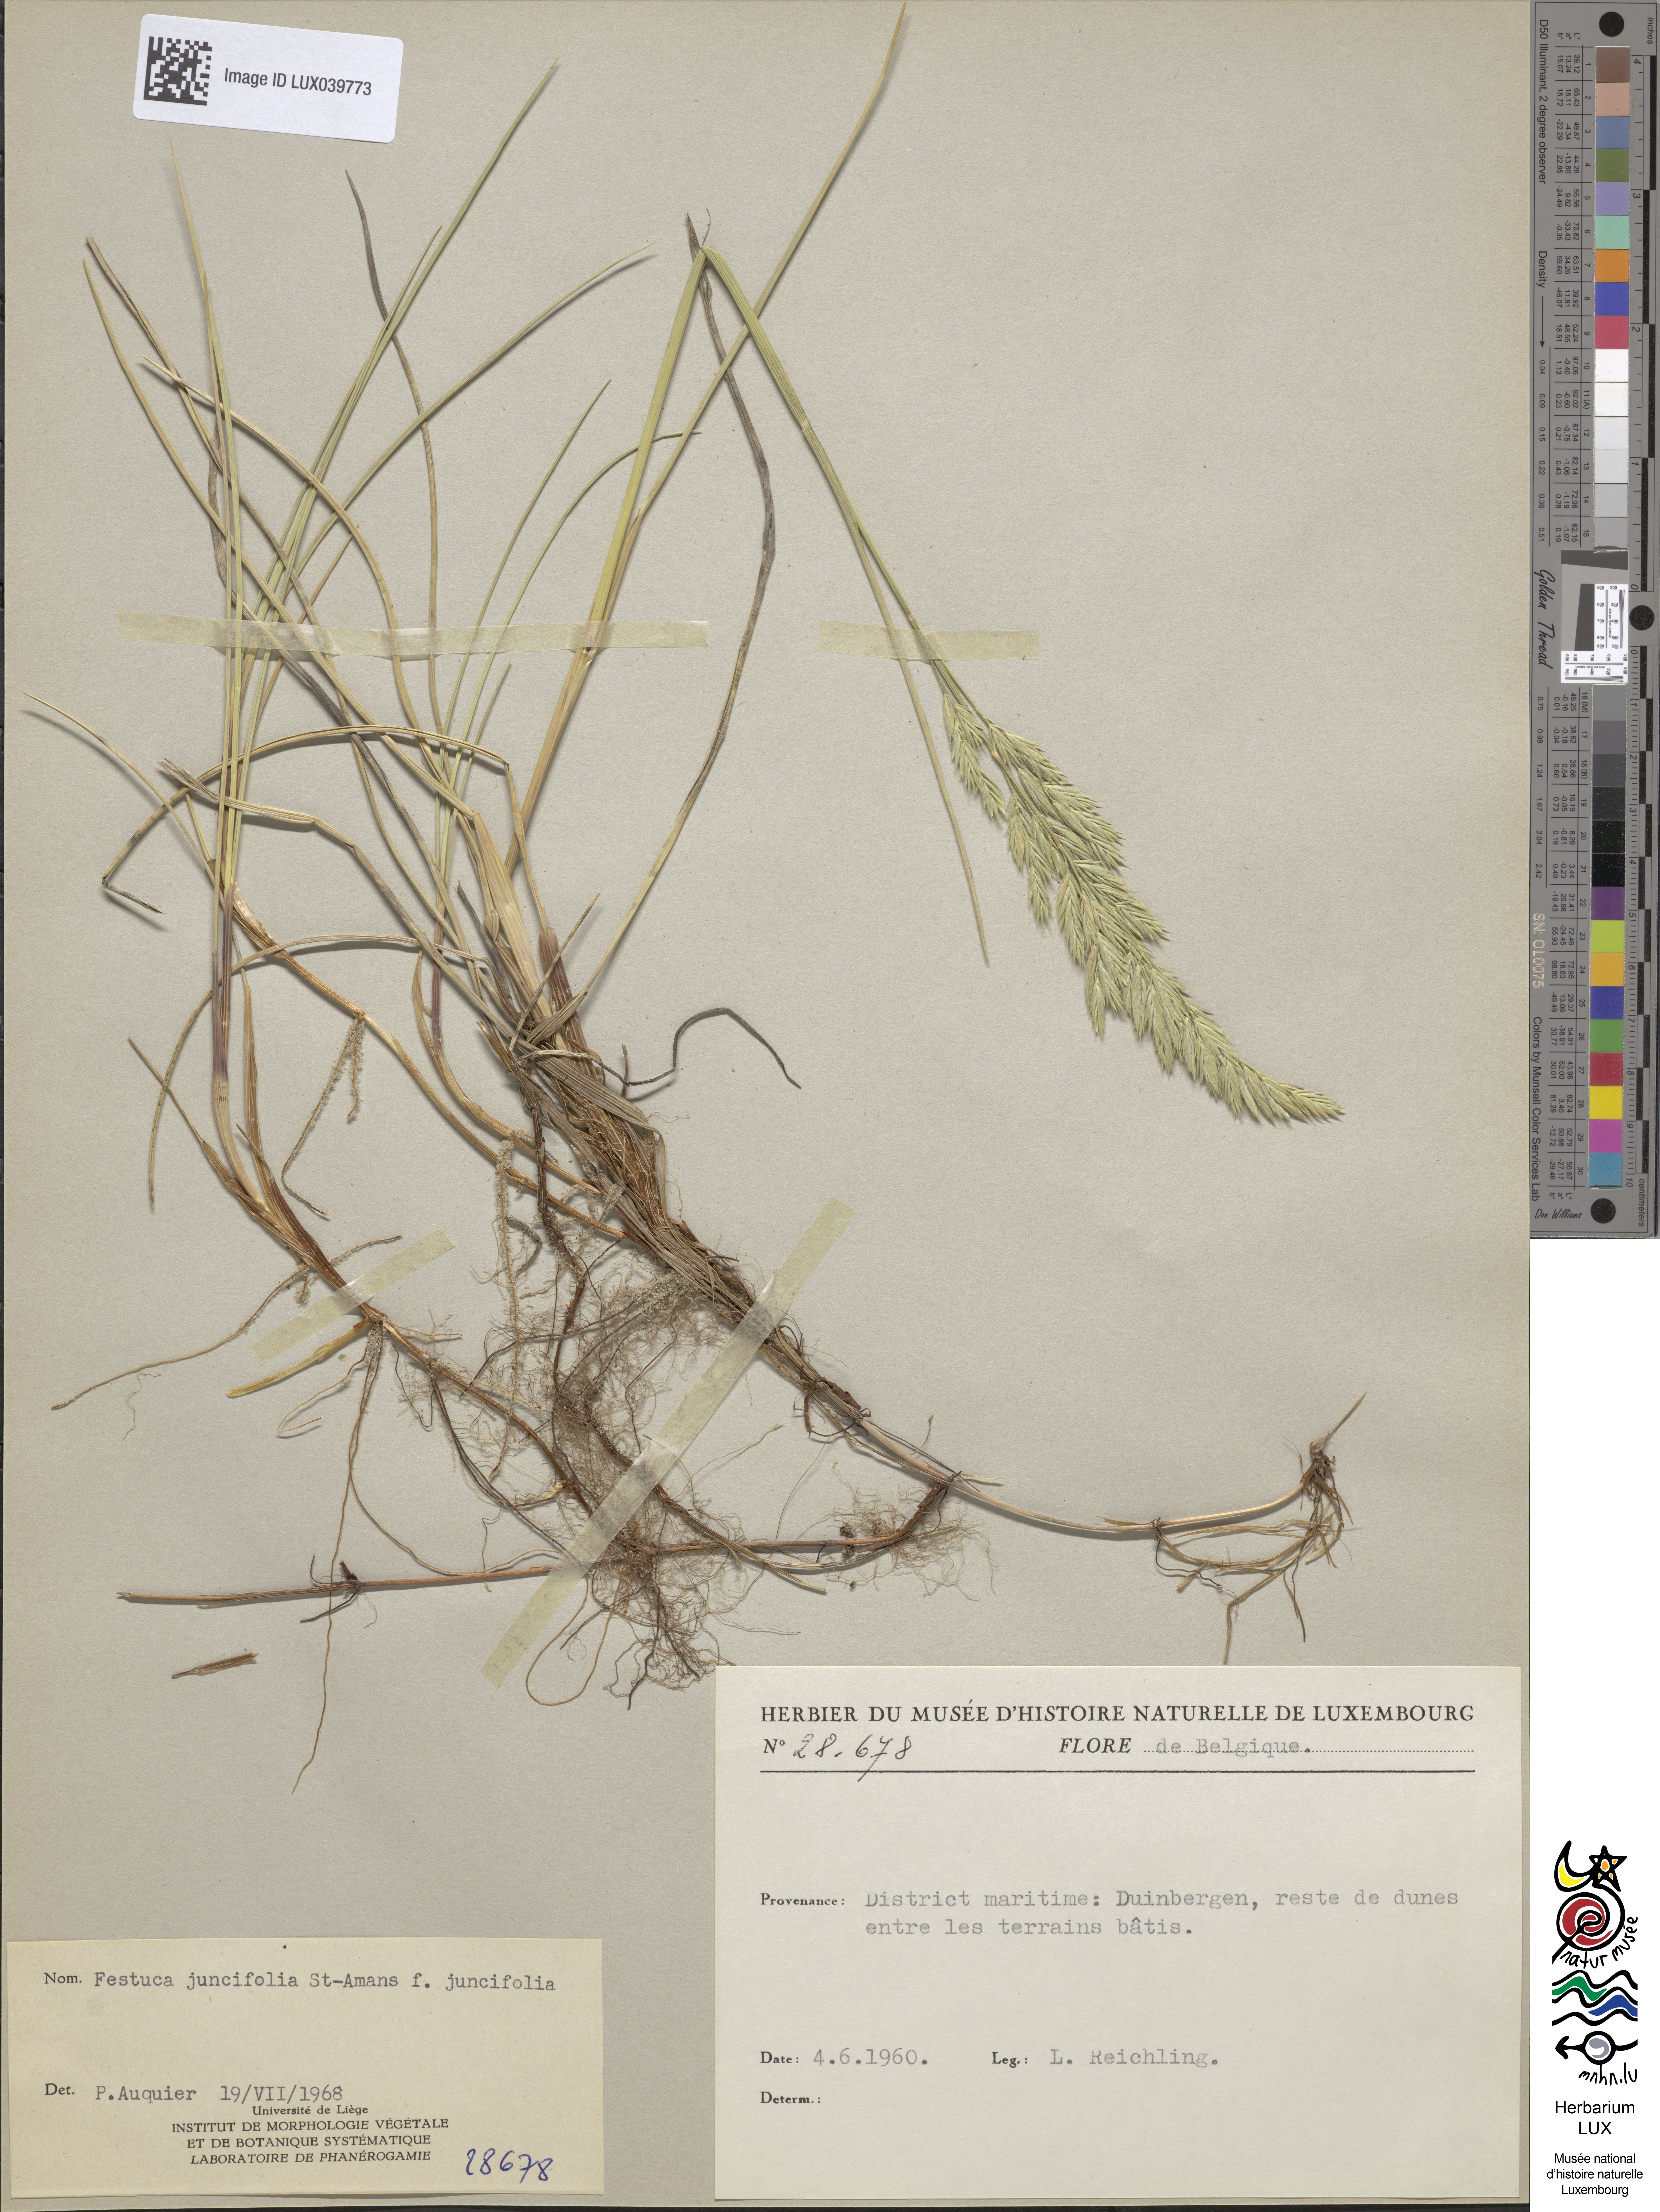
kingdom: Plantae
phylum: Tracheophyta
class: Liliopsida
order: Poales
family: Poaceae
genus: Festuca
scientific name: Festuca juncifolia
